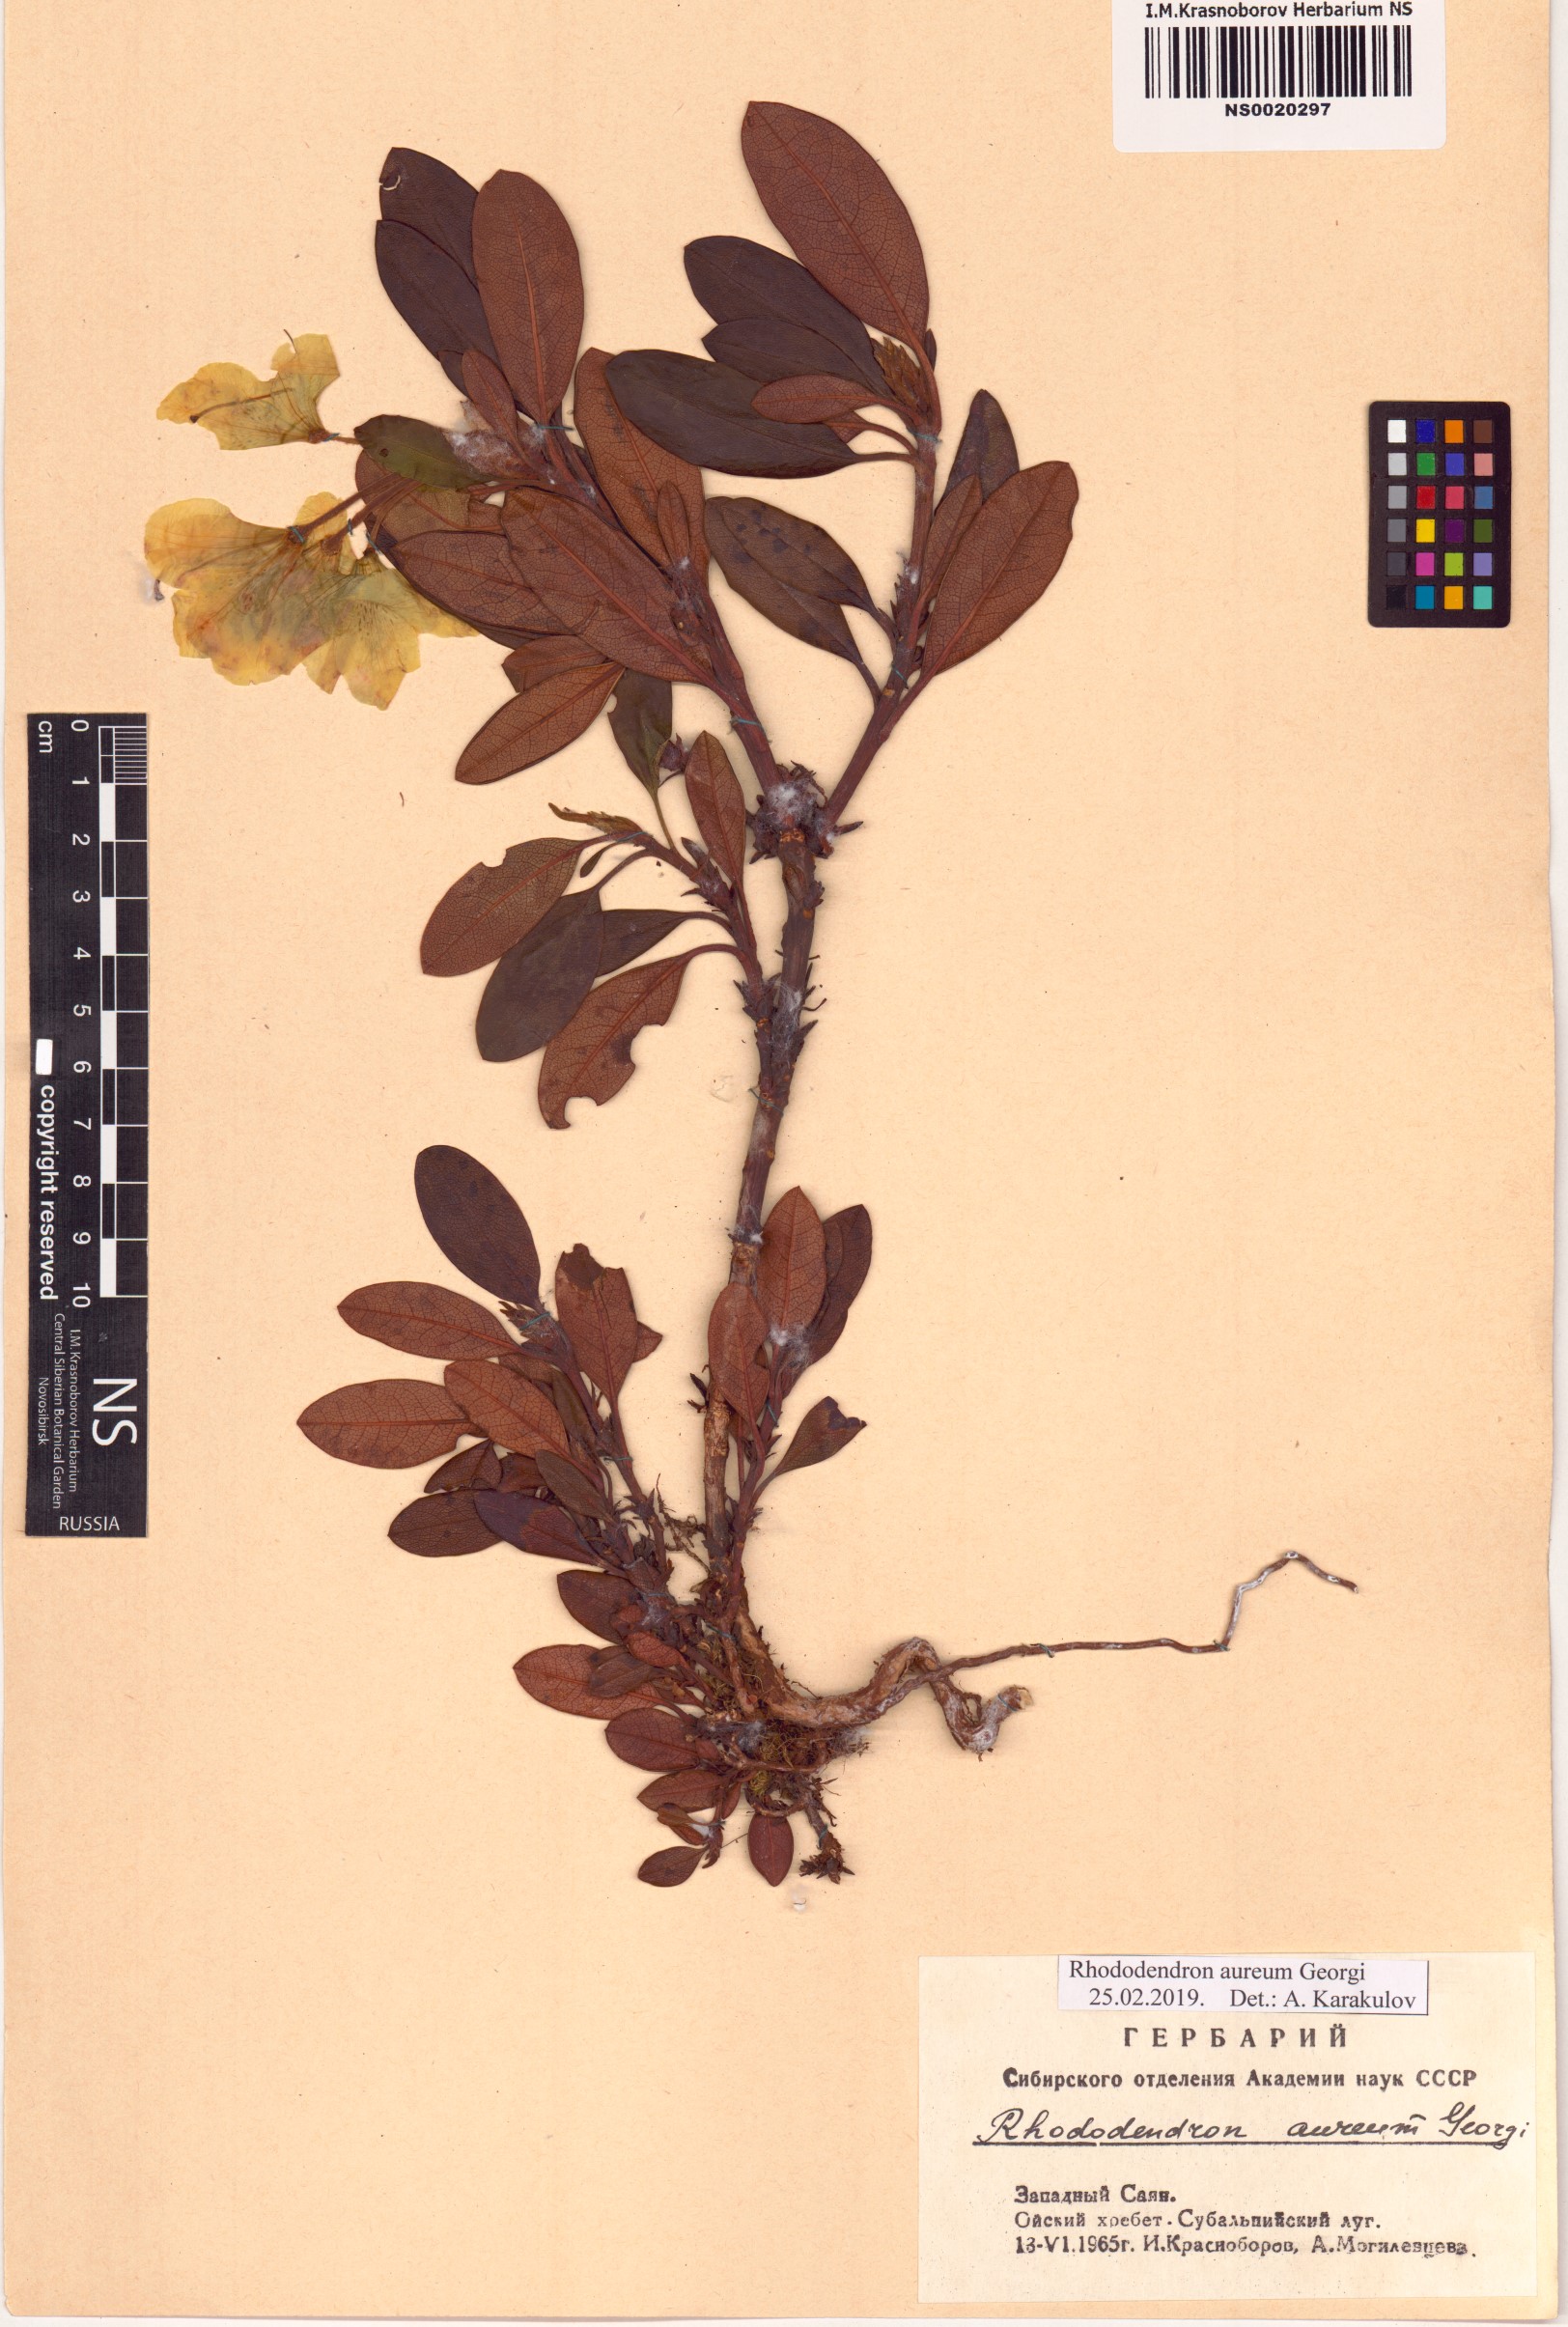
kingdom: Plantae
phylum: Tracheophyta
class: Magnoliopsida
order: Ericales
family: Ericaceae
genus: Rhododendron
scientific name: Rhododendron aureum
